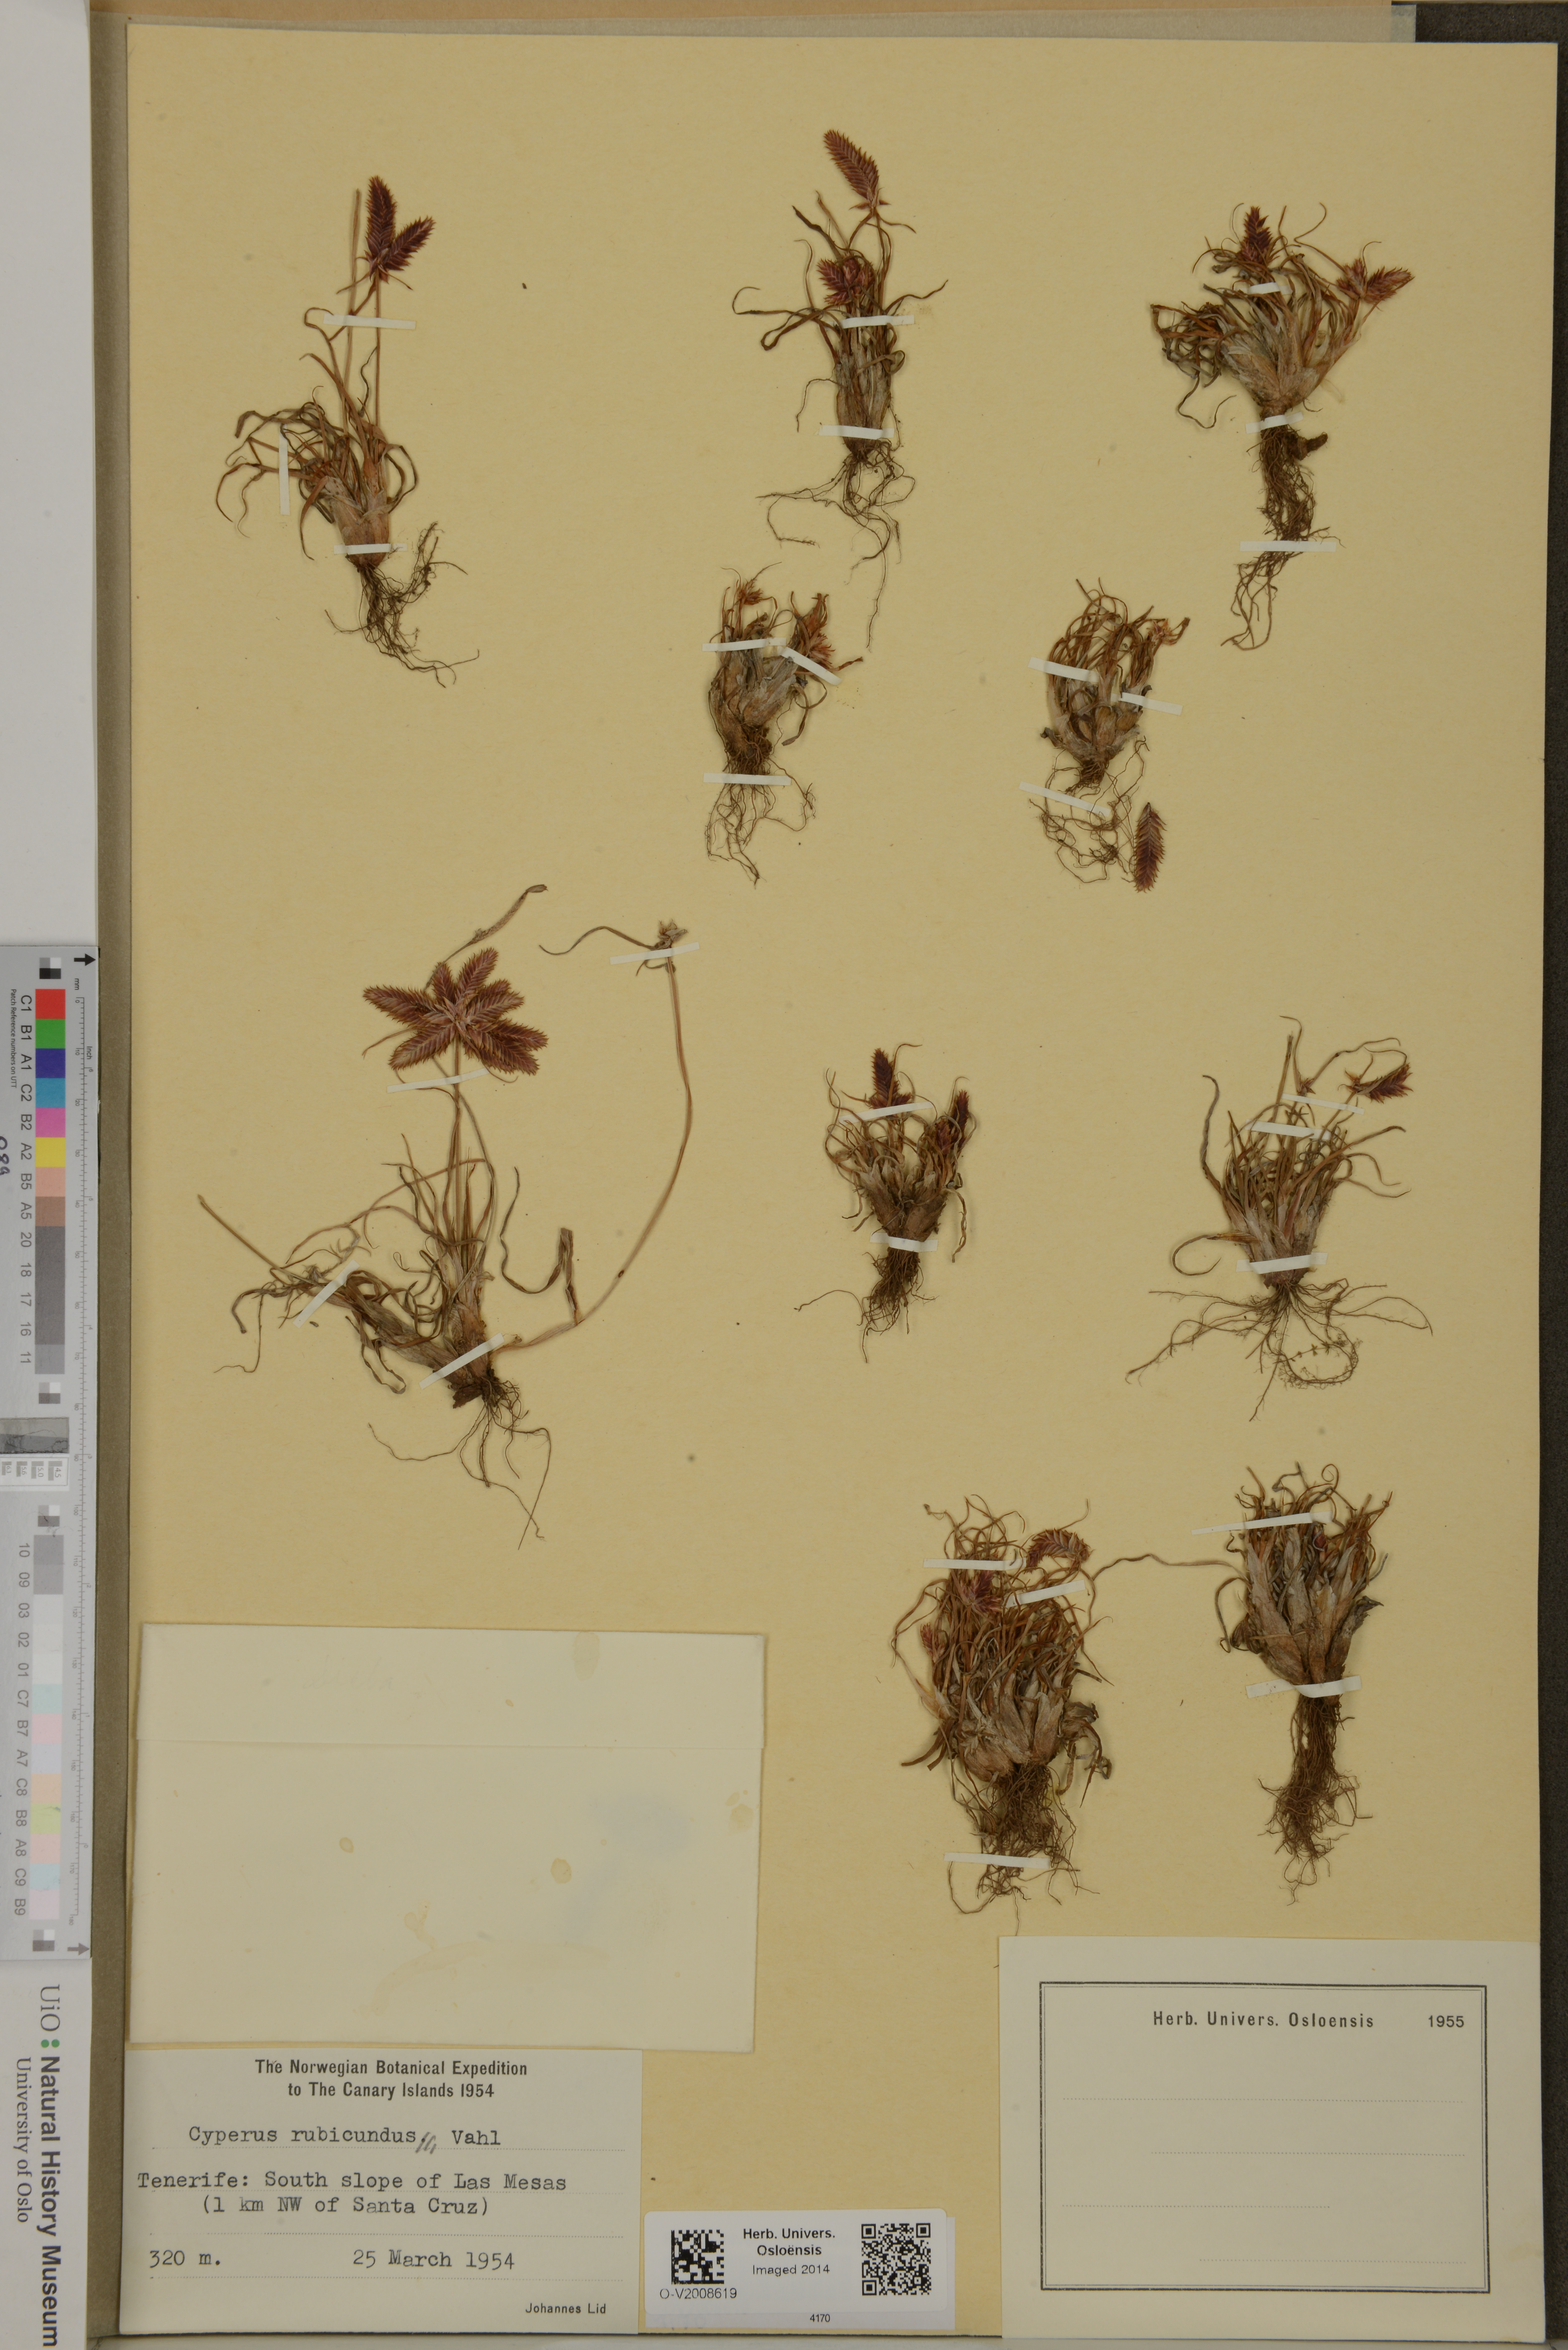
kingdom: Plantae
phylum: Tracheophyta
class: Liliopsida
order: Poales
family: Cyperaceae
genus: Cyperus
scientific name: Cyperus rubicundus
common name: Coco-grass
